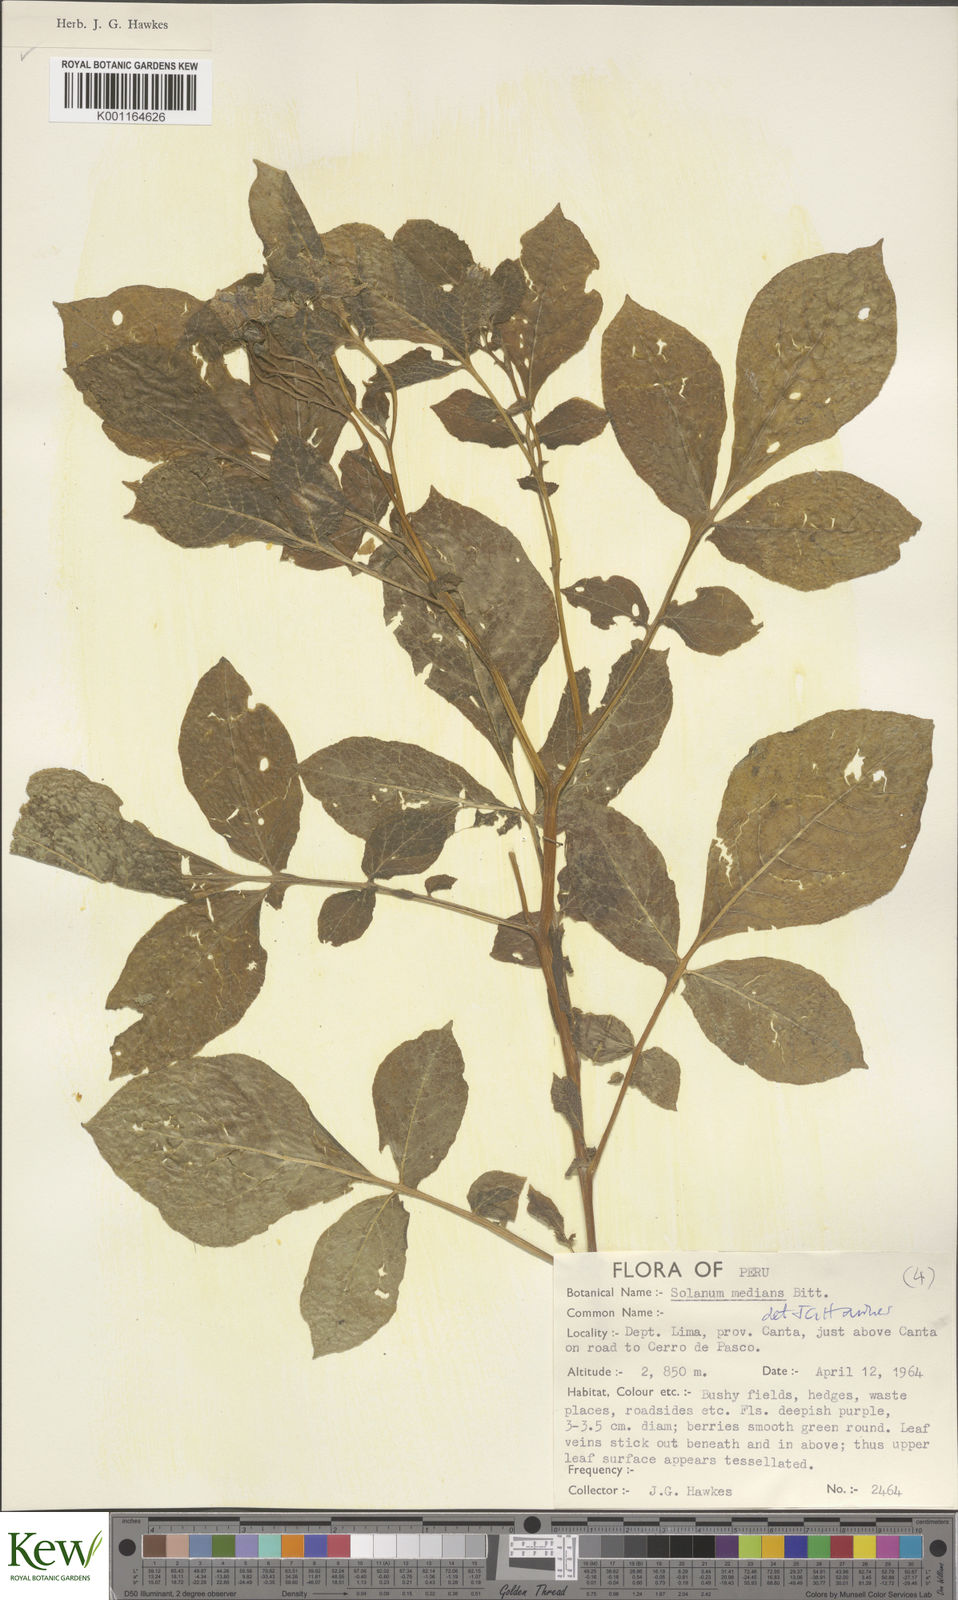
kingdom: Plantae
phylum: Tracheophyta
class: Magnoliopsida
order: Solanales
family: Solanaceae
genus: Solanum
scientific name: Solanum medians
